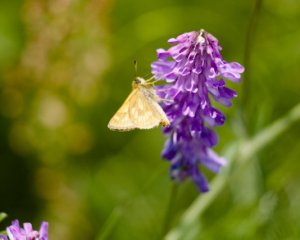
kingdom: Animalia
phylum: Arthropoda
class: Insecta
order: Lepidoptera
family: Hesperiidae
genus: Polites
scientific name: Polites
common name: Long Dash Skipper
